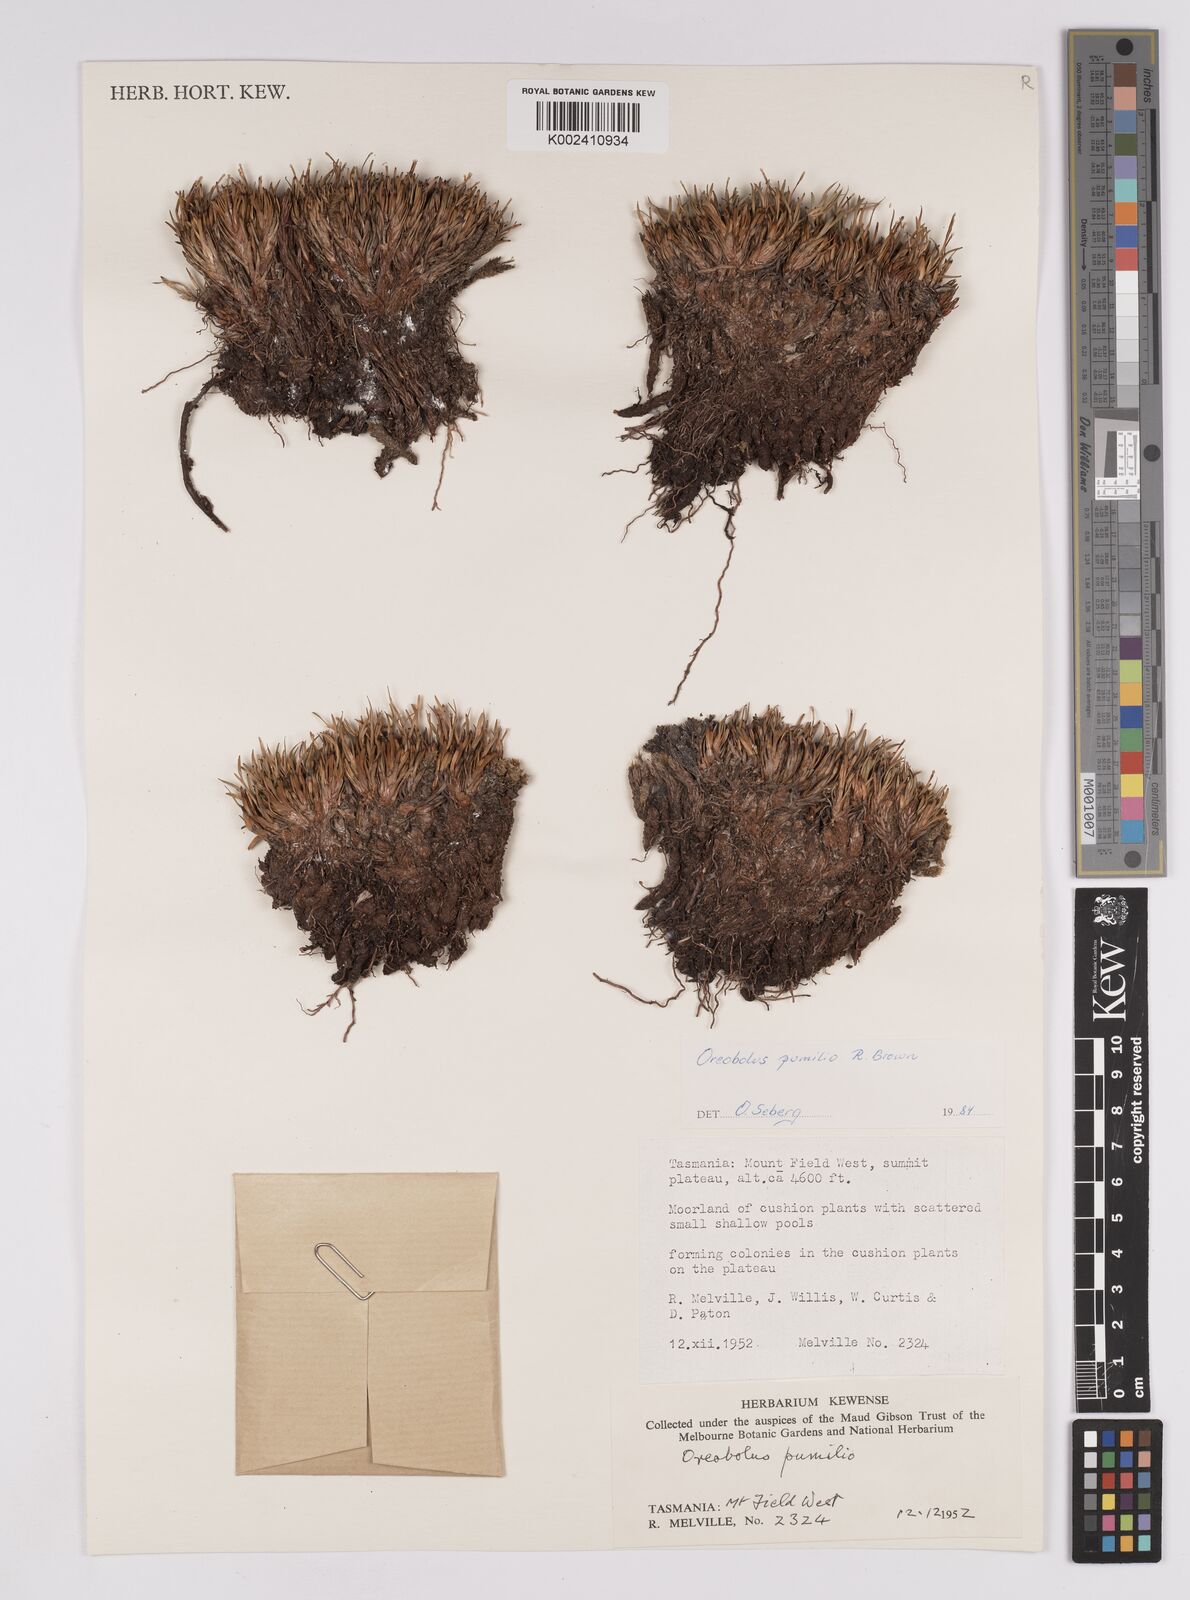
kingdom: Plantae
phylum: Tracheophyta
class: Liliopsida
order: Poales
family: Cyperaceae
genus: Oreobolus
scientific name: Oreobolus pumilio
